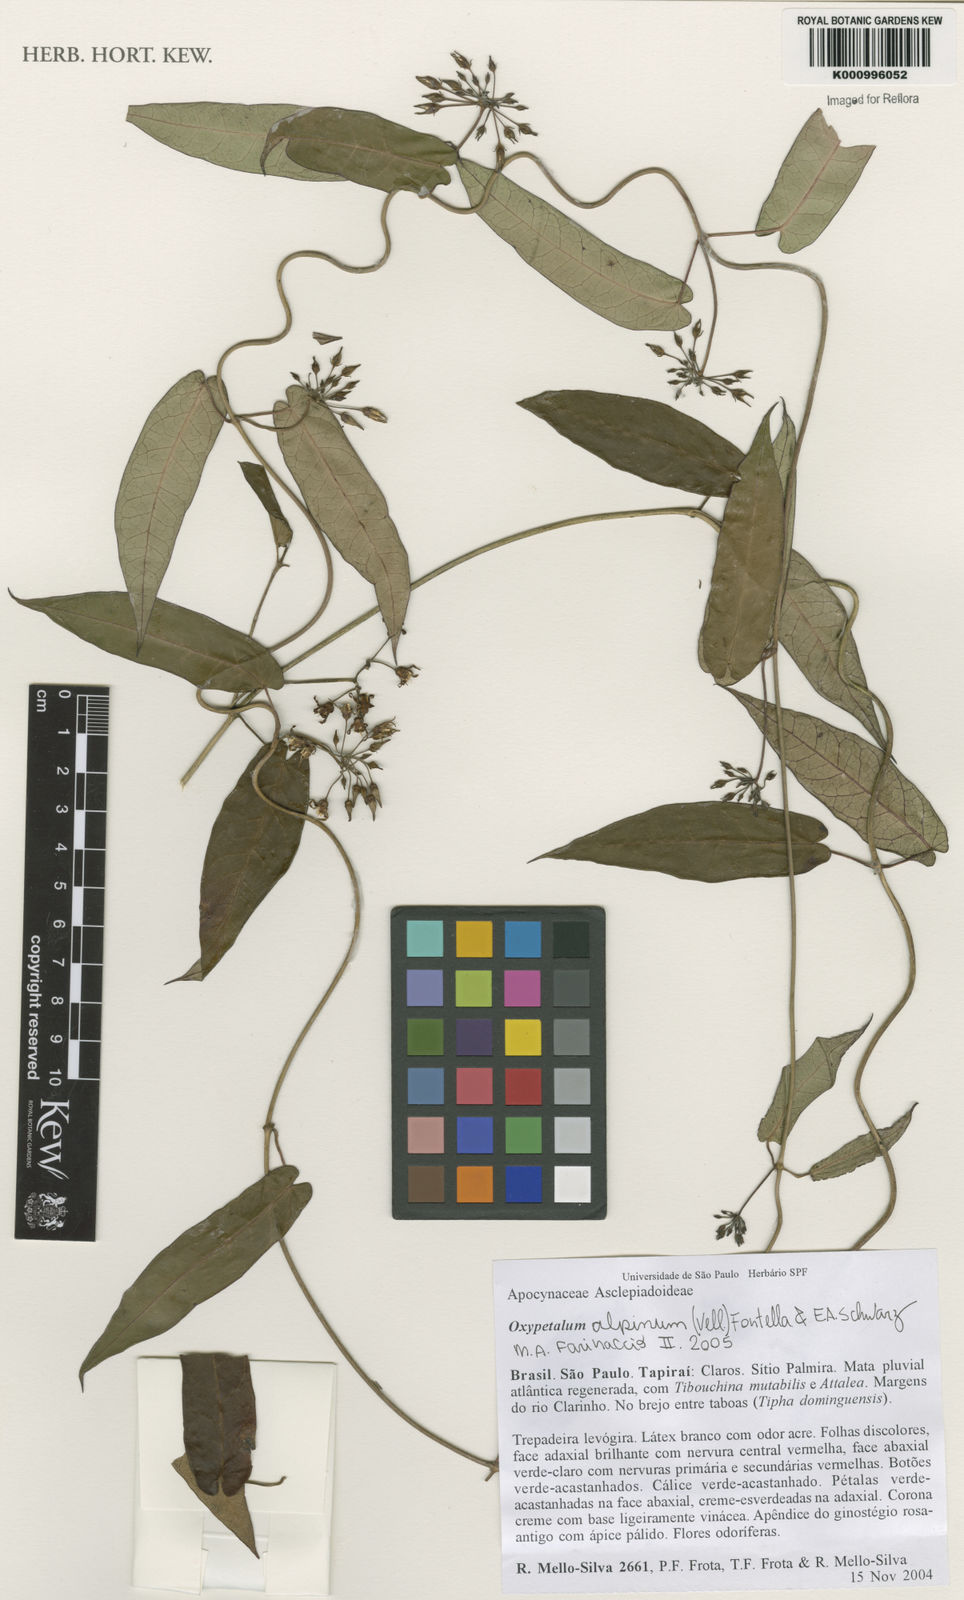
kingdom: Plantae
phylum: Tracheophyta
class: Magnoliopsida
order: Gentianales
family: Apocynaceae
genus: Oxypetalum
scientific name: Oxypetalum alpinum
